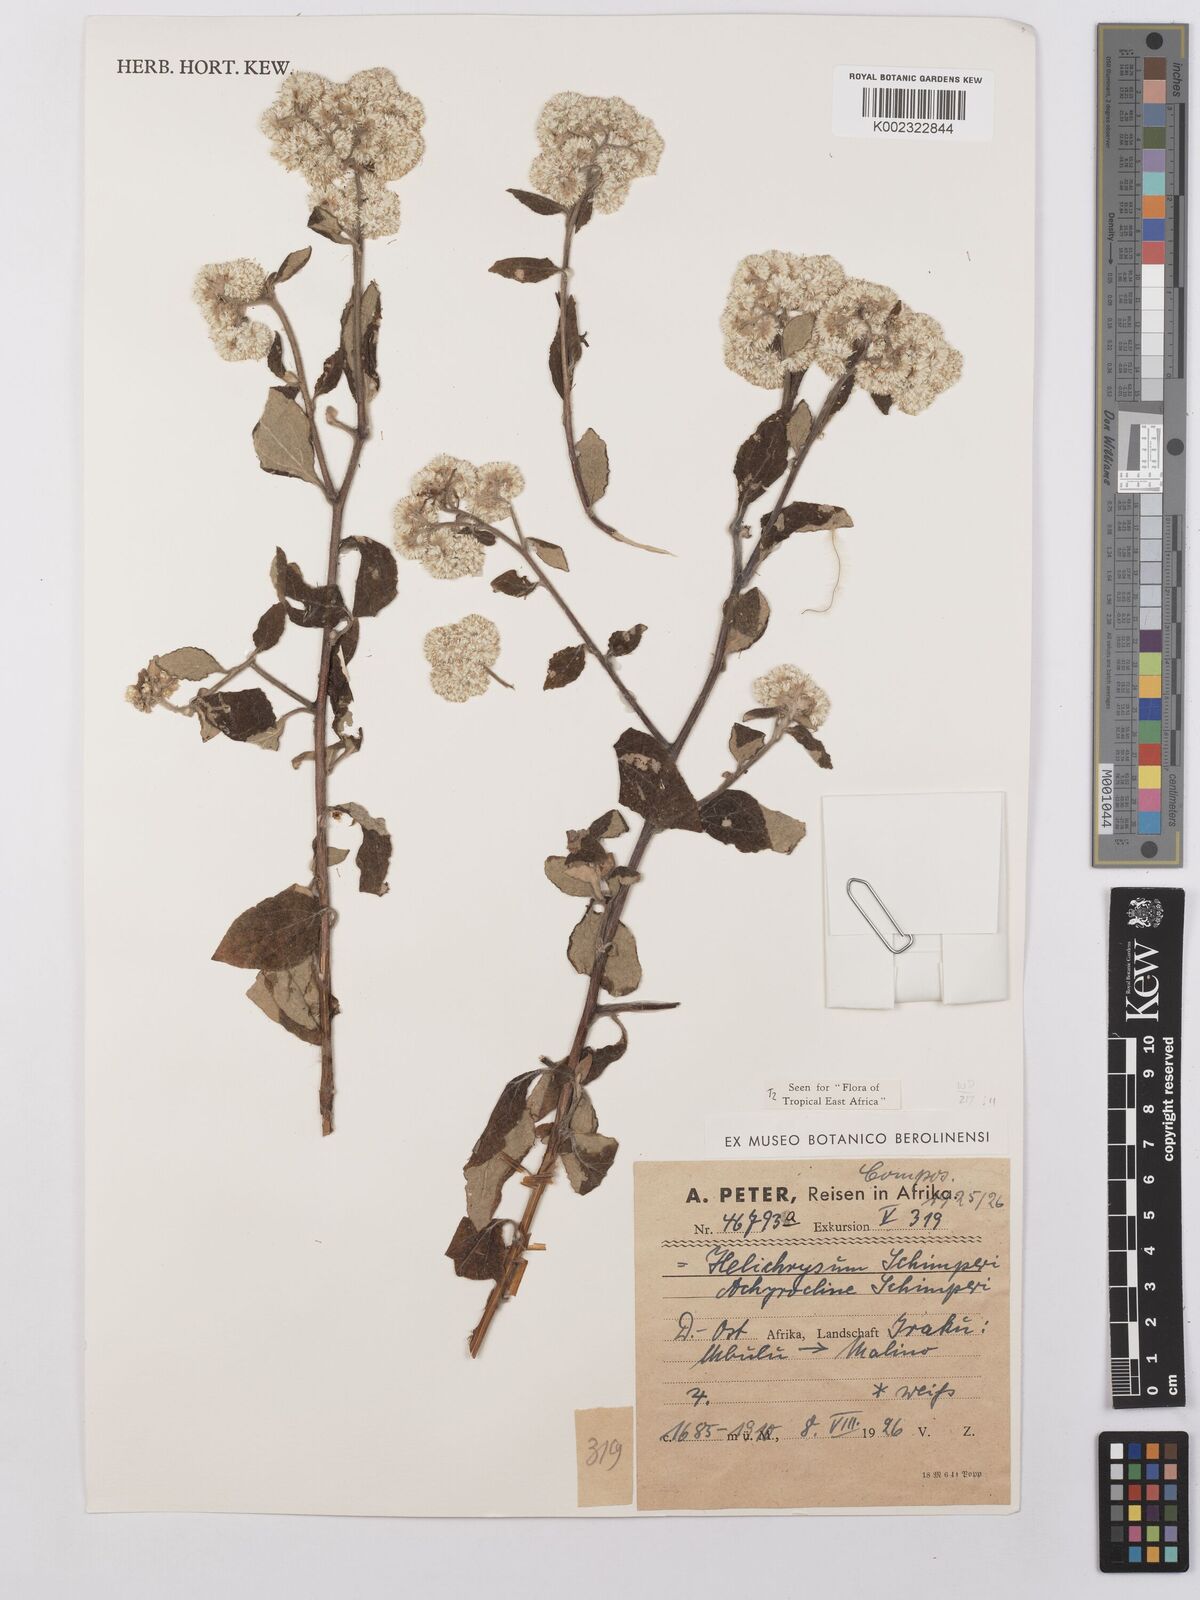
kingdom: Plantae
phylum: Tracheophyta
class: Magnoliopsida
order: Asterales
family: Asteraceae
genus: Helichrysum
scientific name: Helichrysum schimperi
